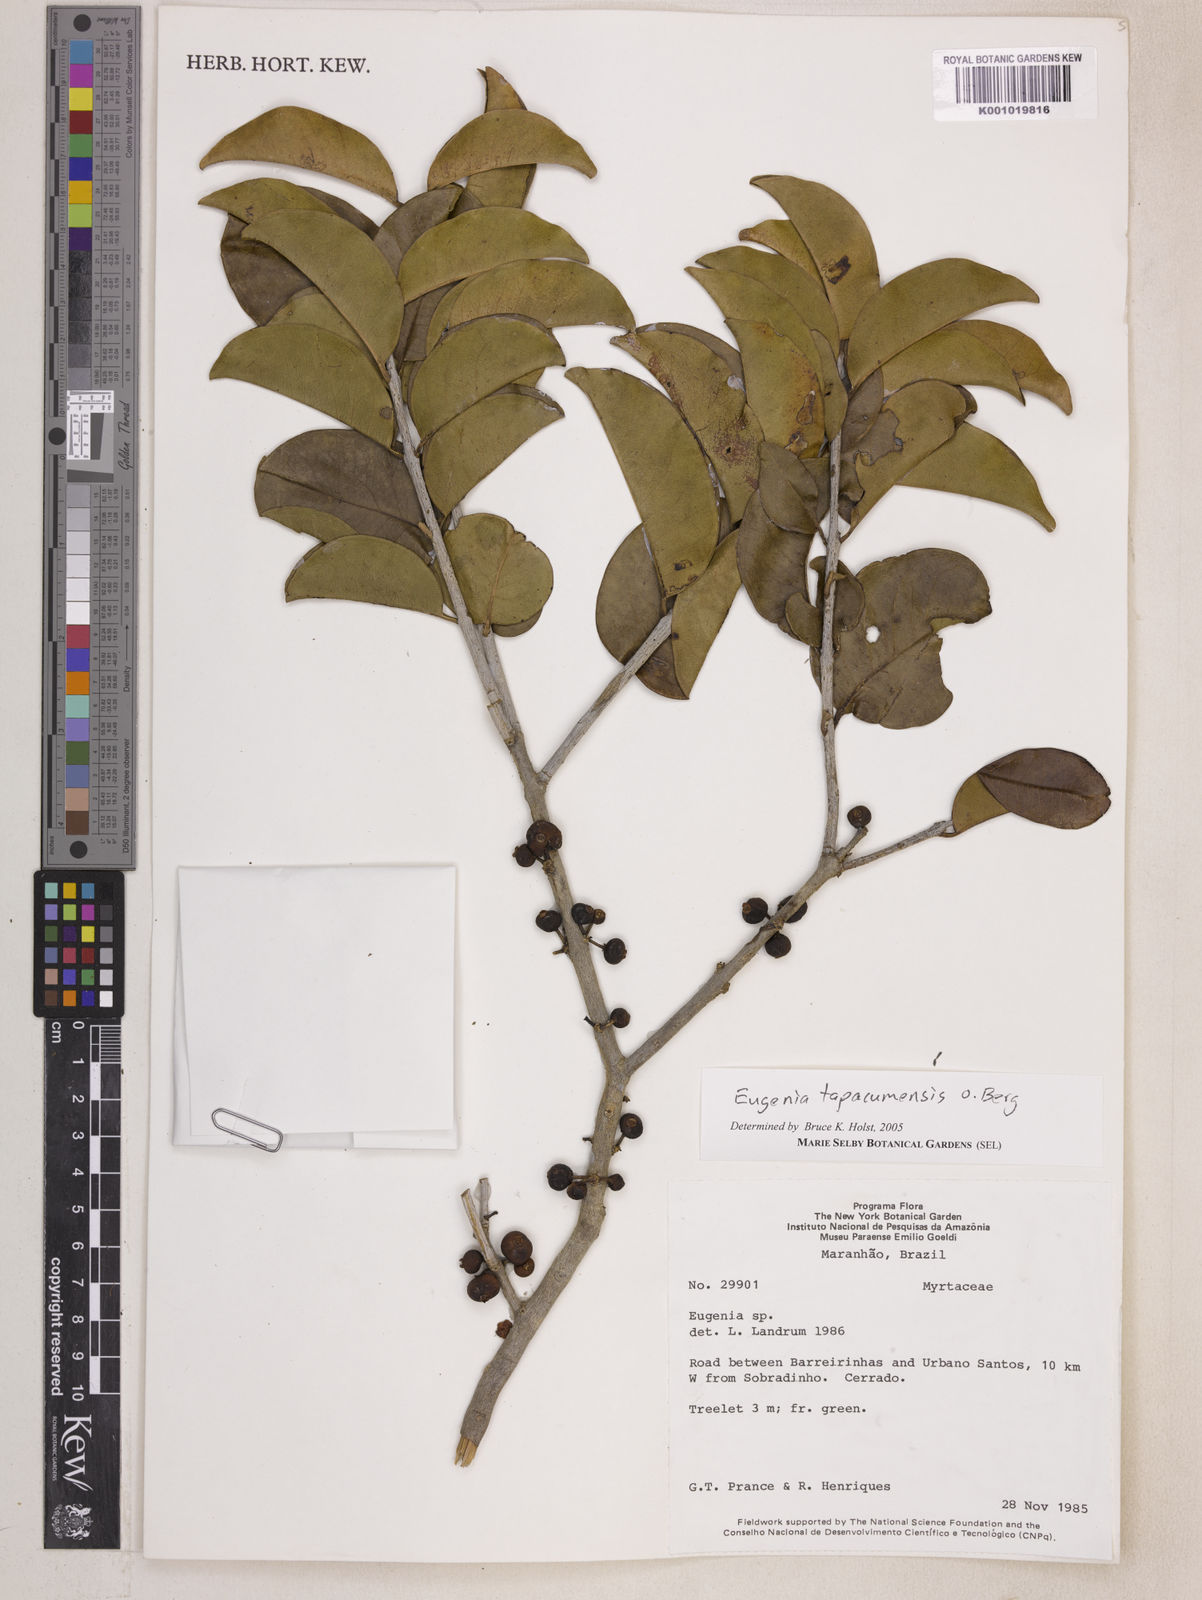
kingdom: Plantae
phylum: Tracheophyta
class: Magnoliopsida
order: Myrtales
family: Myrtaceae
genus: Eugenia
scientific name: Eugenia stictopetala
